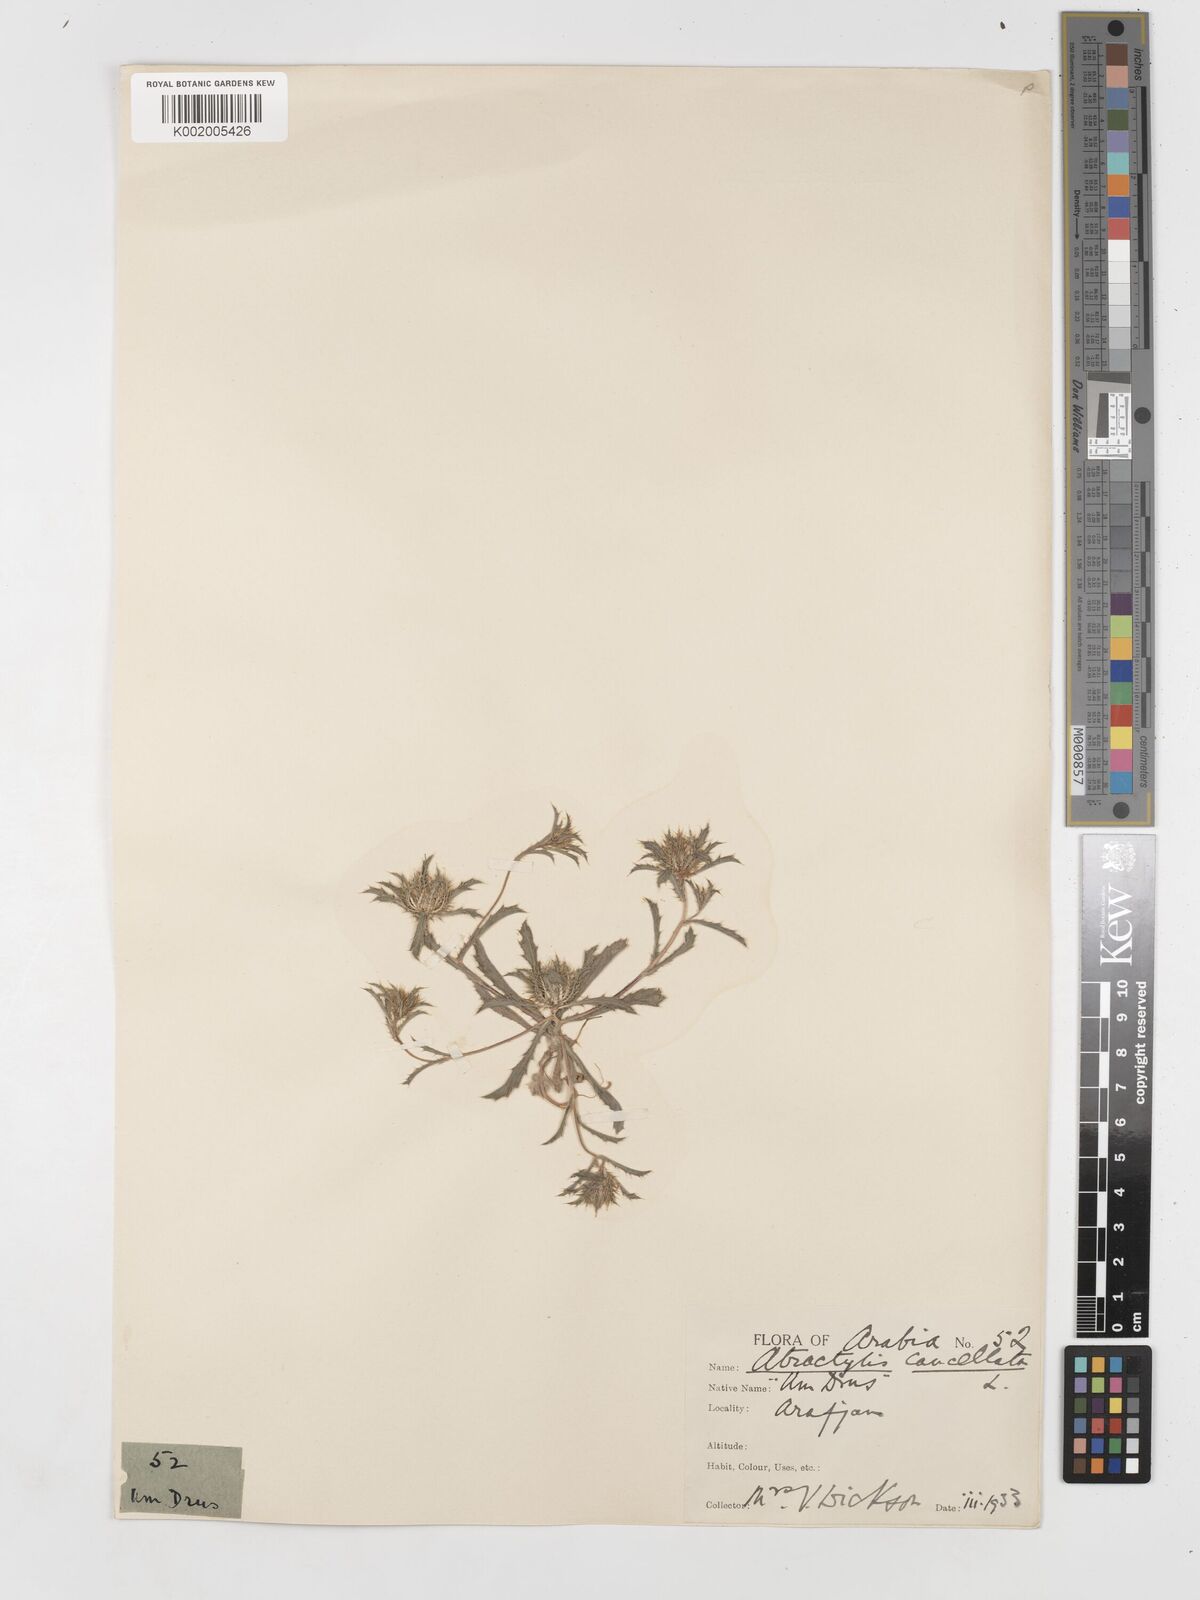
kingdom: Plantae
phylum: Tracheophyta
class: Magnoliopsida
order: Asterales
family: Asteraceae
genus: Atractylis
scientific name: Atractylis cancellata
